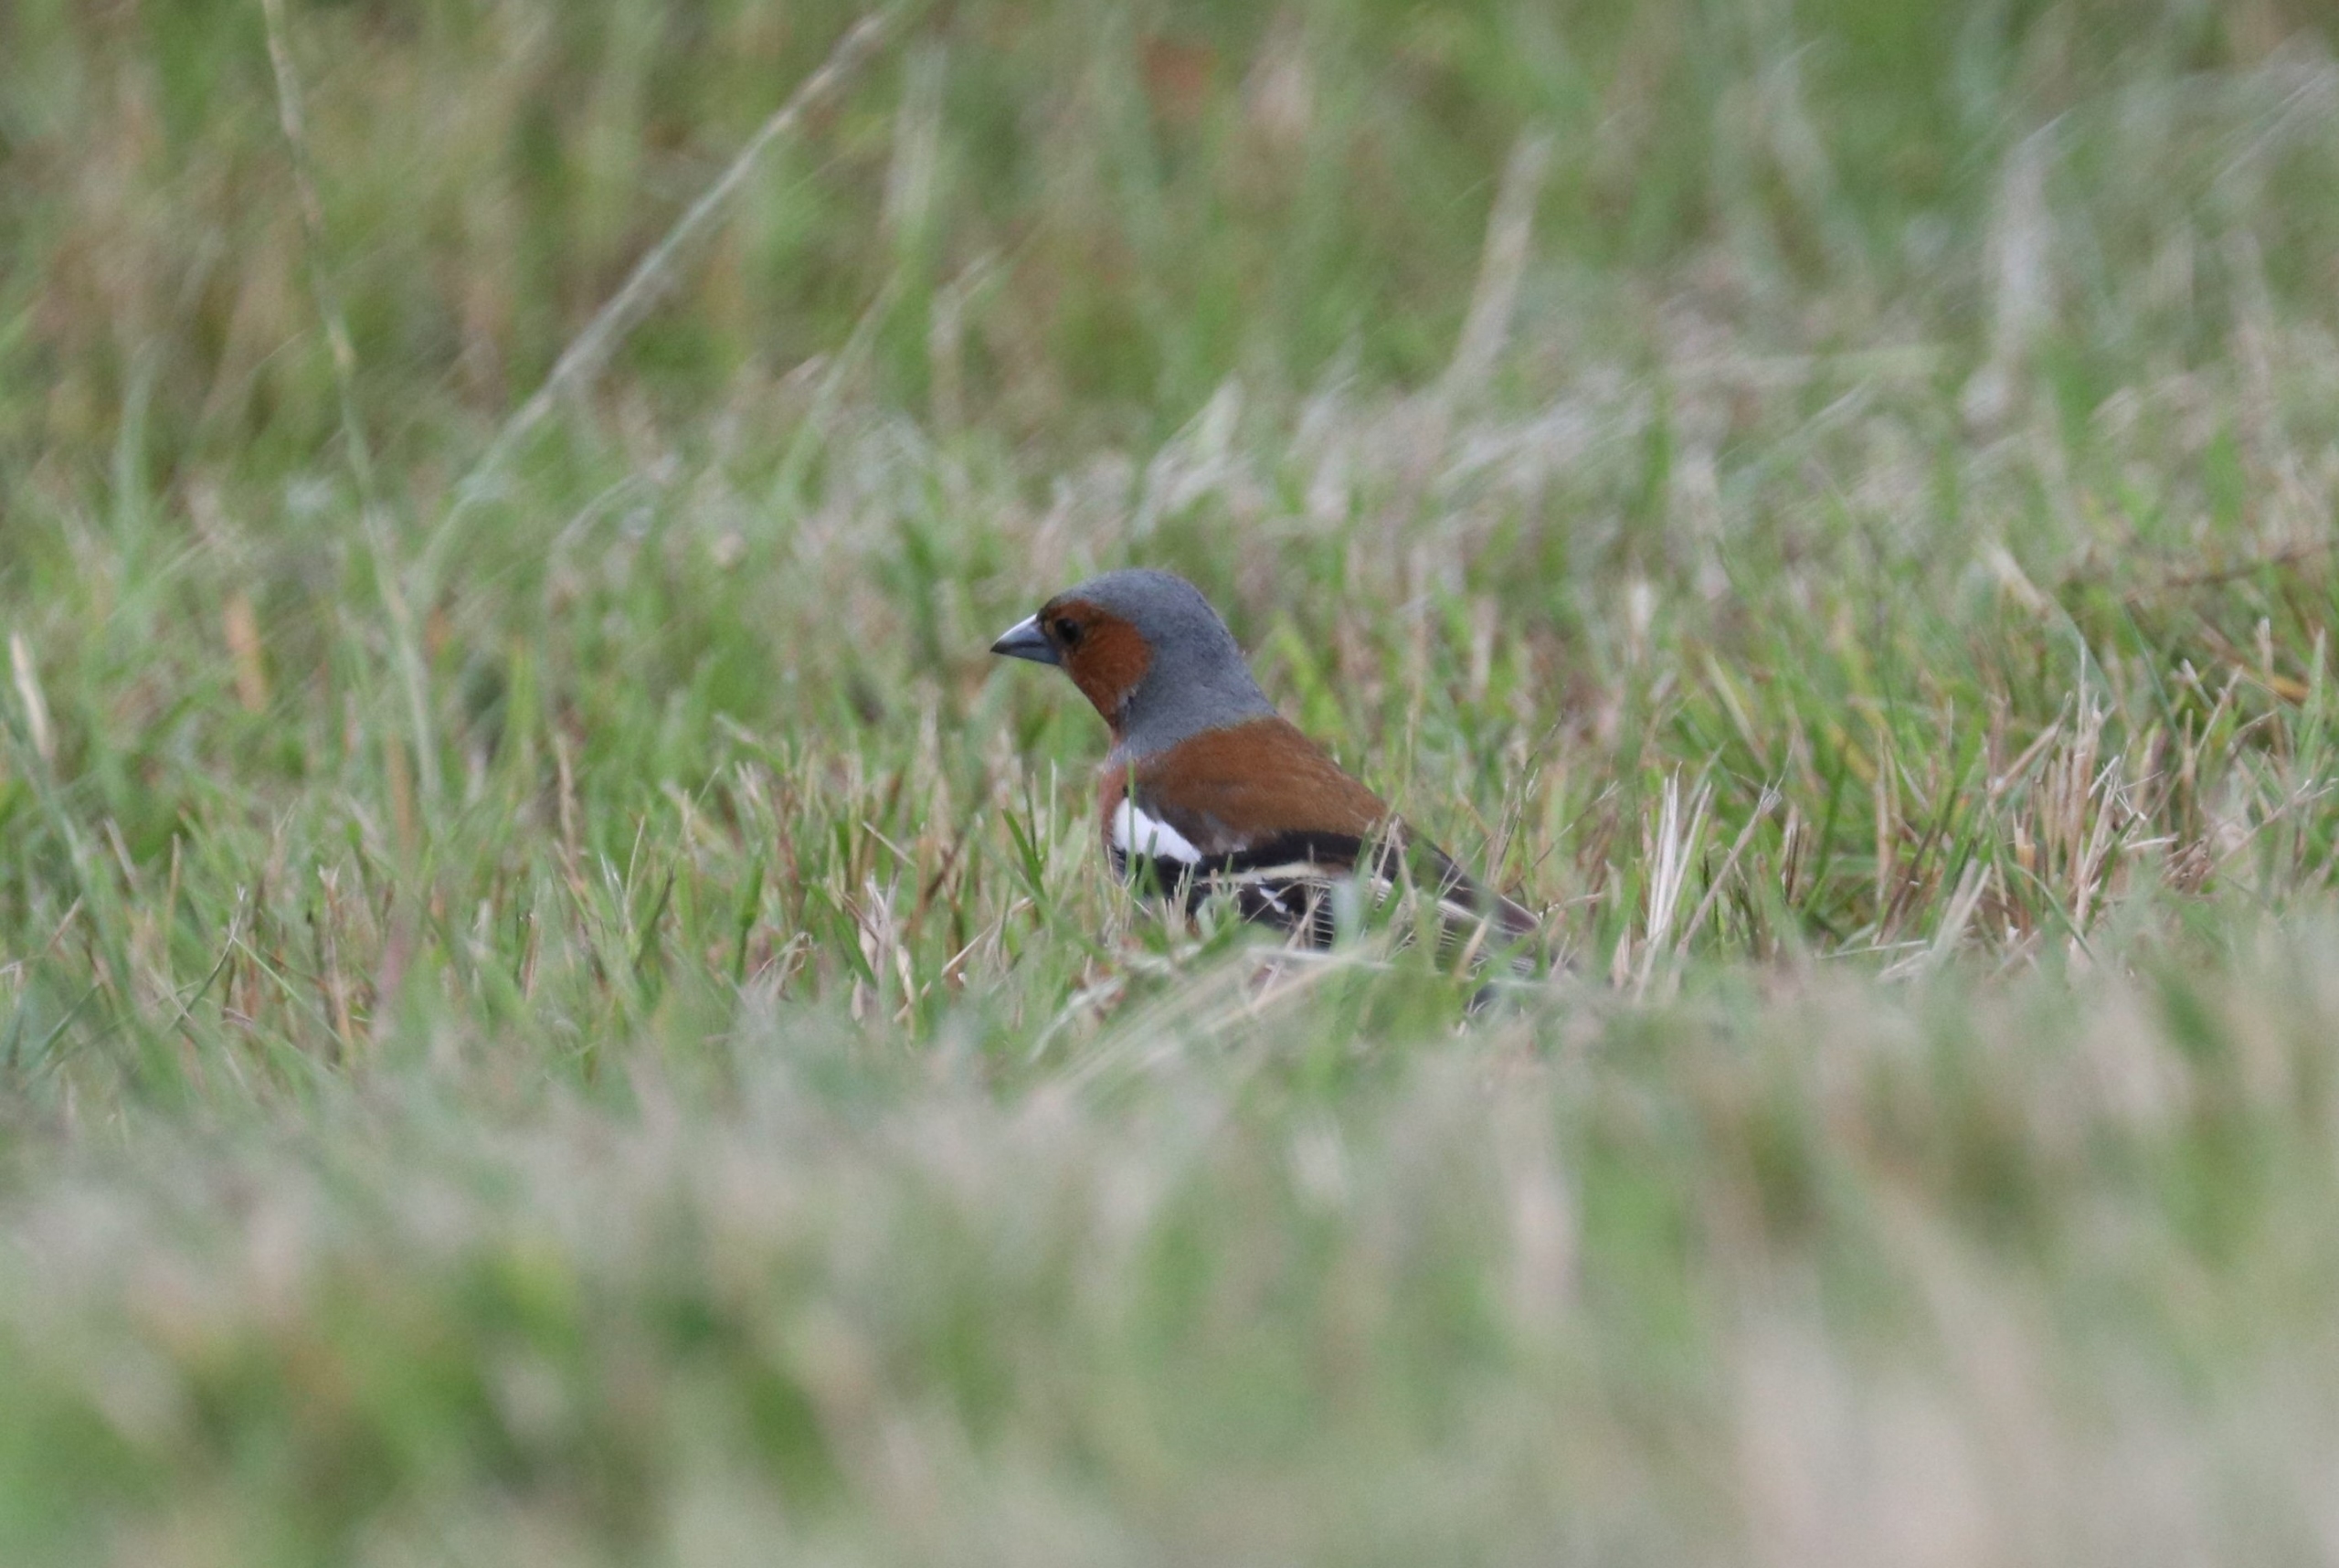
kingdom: Animalia
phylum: Chordata
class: Aves
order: Passeriformes
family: Fringillidae
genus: Fringilla
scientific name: Fringilla coelebs
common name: Bogfinke
